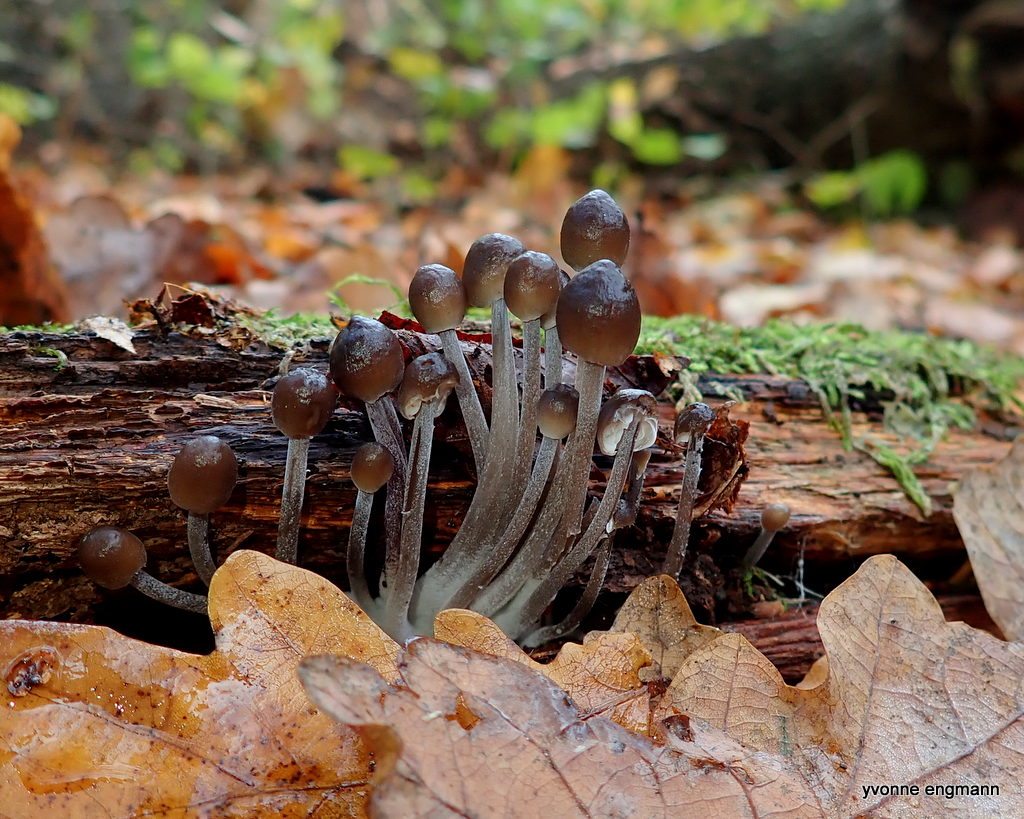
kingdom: Fungi
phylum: Basidiomycota
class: Agaricomycetes
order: Agaricales
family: Mycenaceae
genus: Mycena
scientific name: Mycena inclinata
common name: nikkende huesvamp
